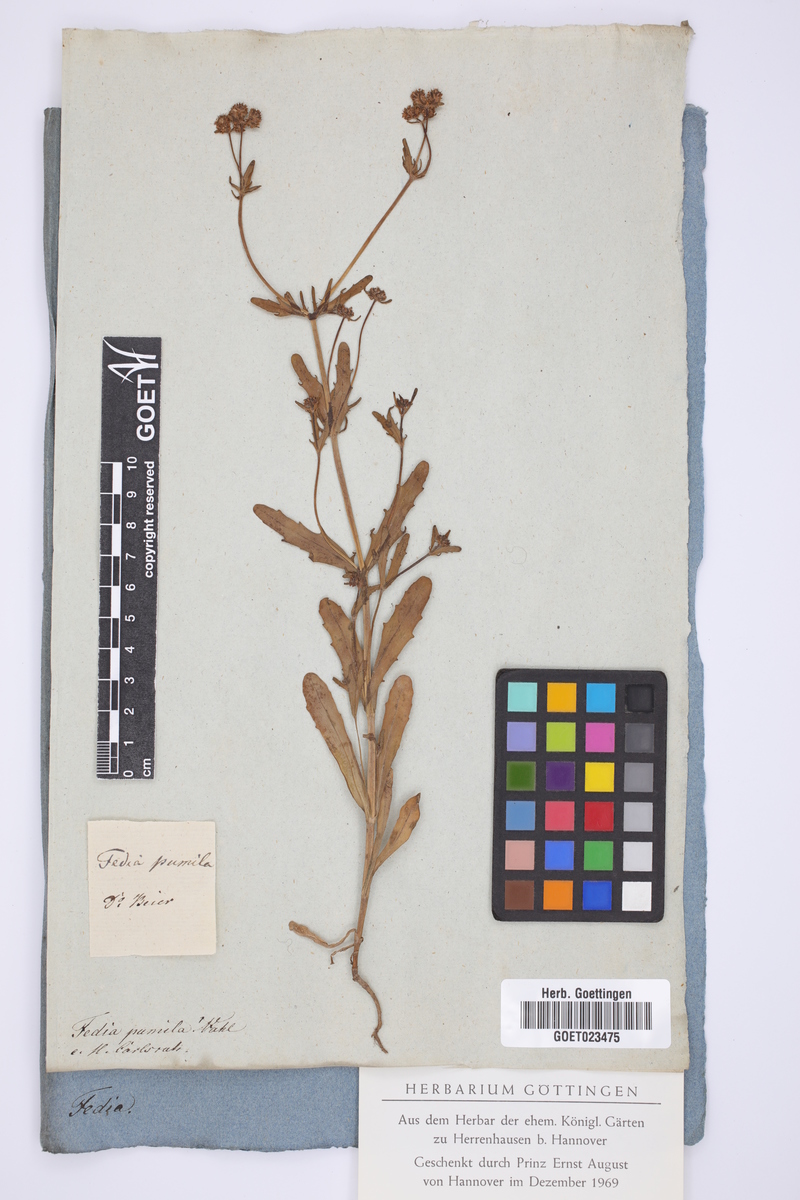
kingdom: Plantae
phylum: Tracheophyta
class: Magnoliopsida
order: Dipsacales
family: Caprifoliaceae
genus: Valerianella
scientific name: Valerianella pumila
